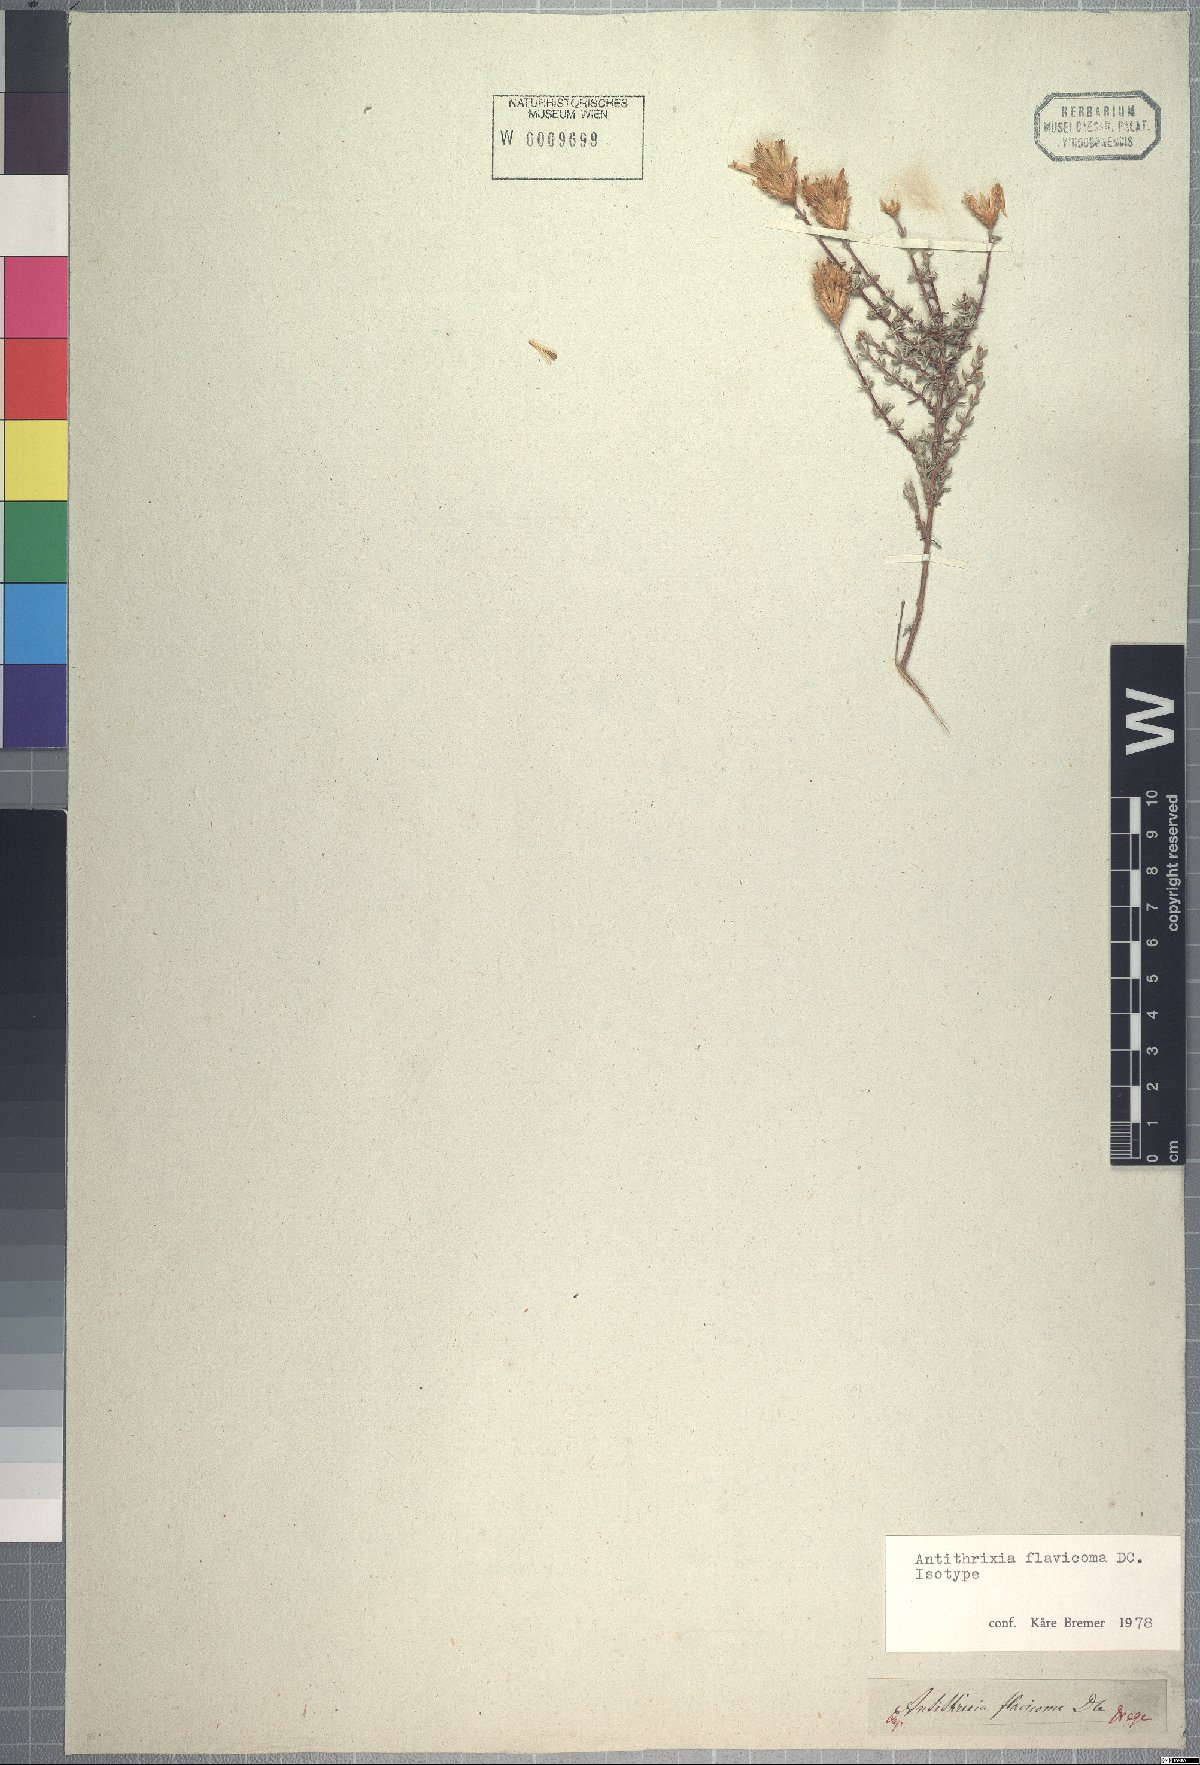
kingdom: Plantae
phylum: Tracheophyta
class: Magnoliopsida
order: Asterales
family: Asteraceae
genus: Oedera
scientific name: Oedera flavicoma
